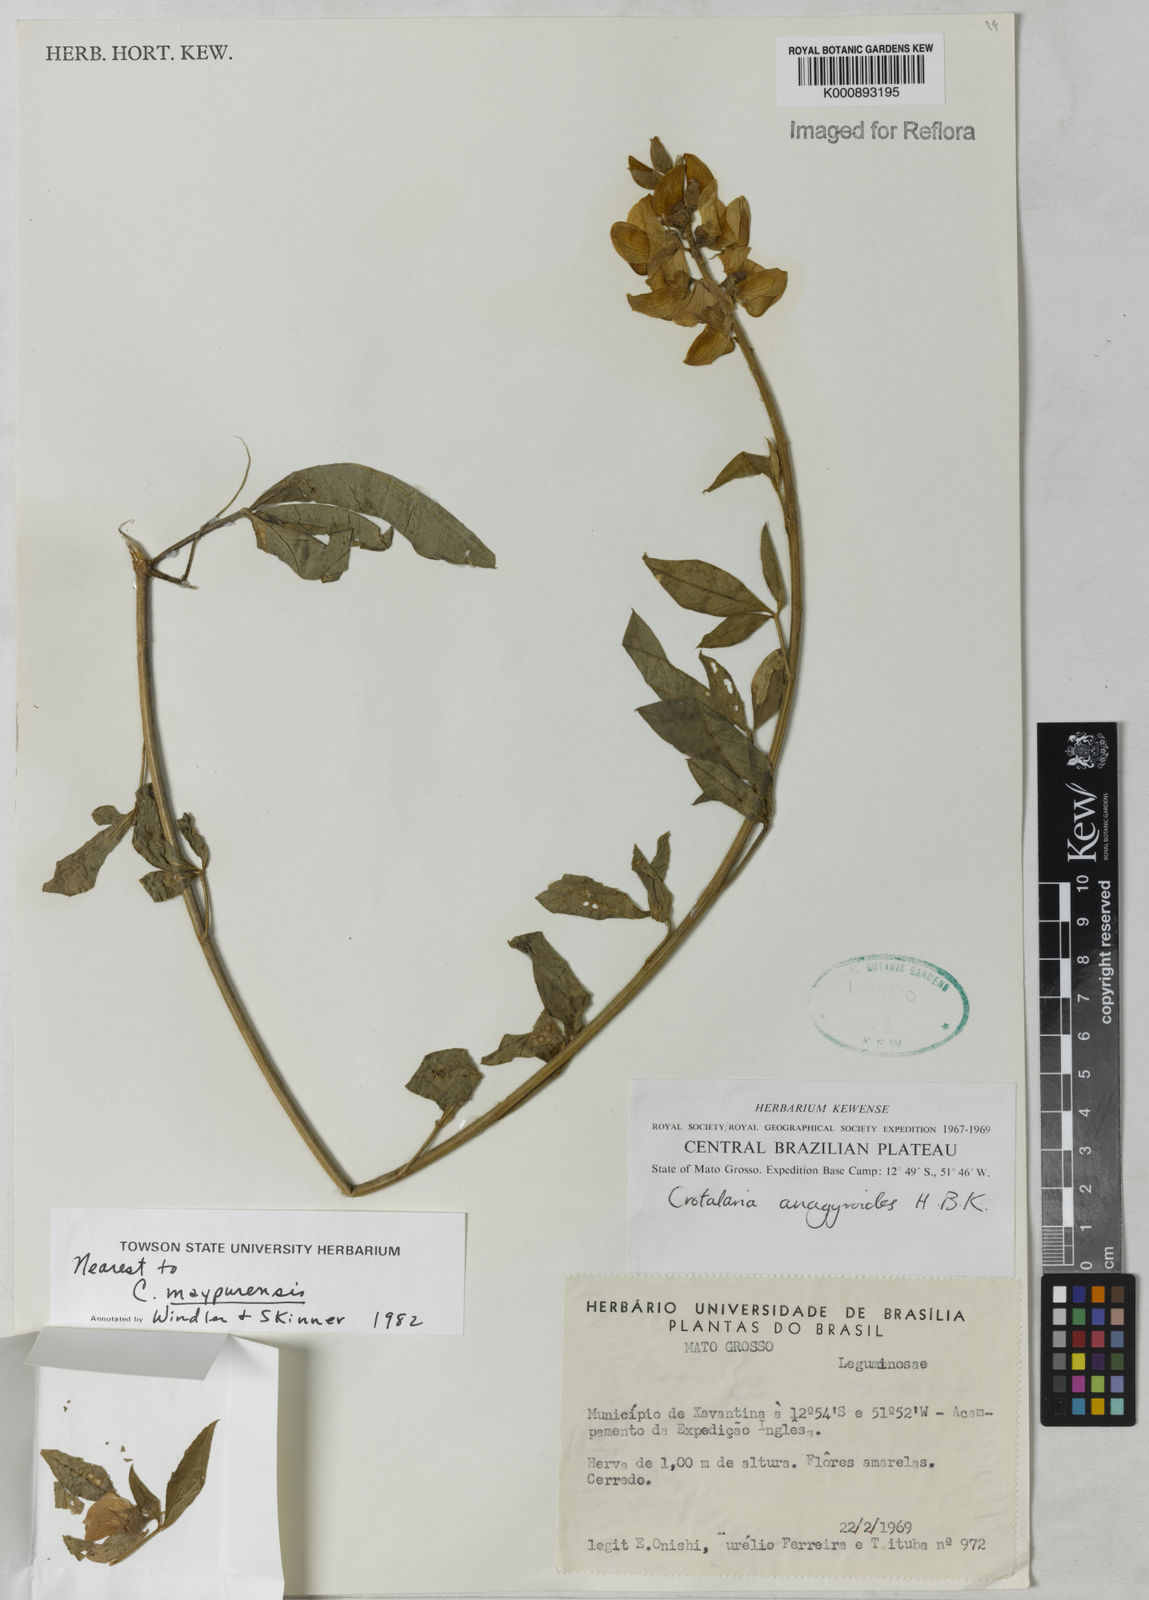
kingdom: Plantae
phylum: Tracheophyta
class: Magnoliopsida
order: Fabales
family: Fabaceae
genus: Crotalaria
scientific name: Crotalaria maypurensis
